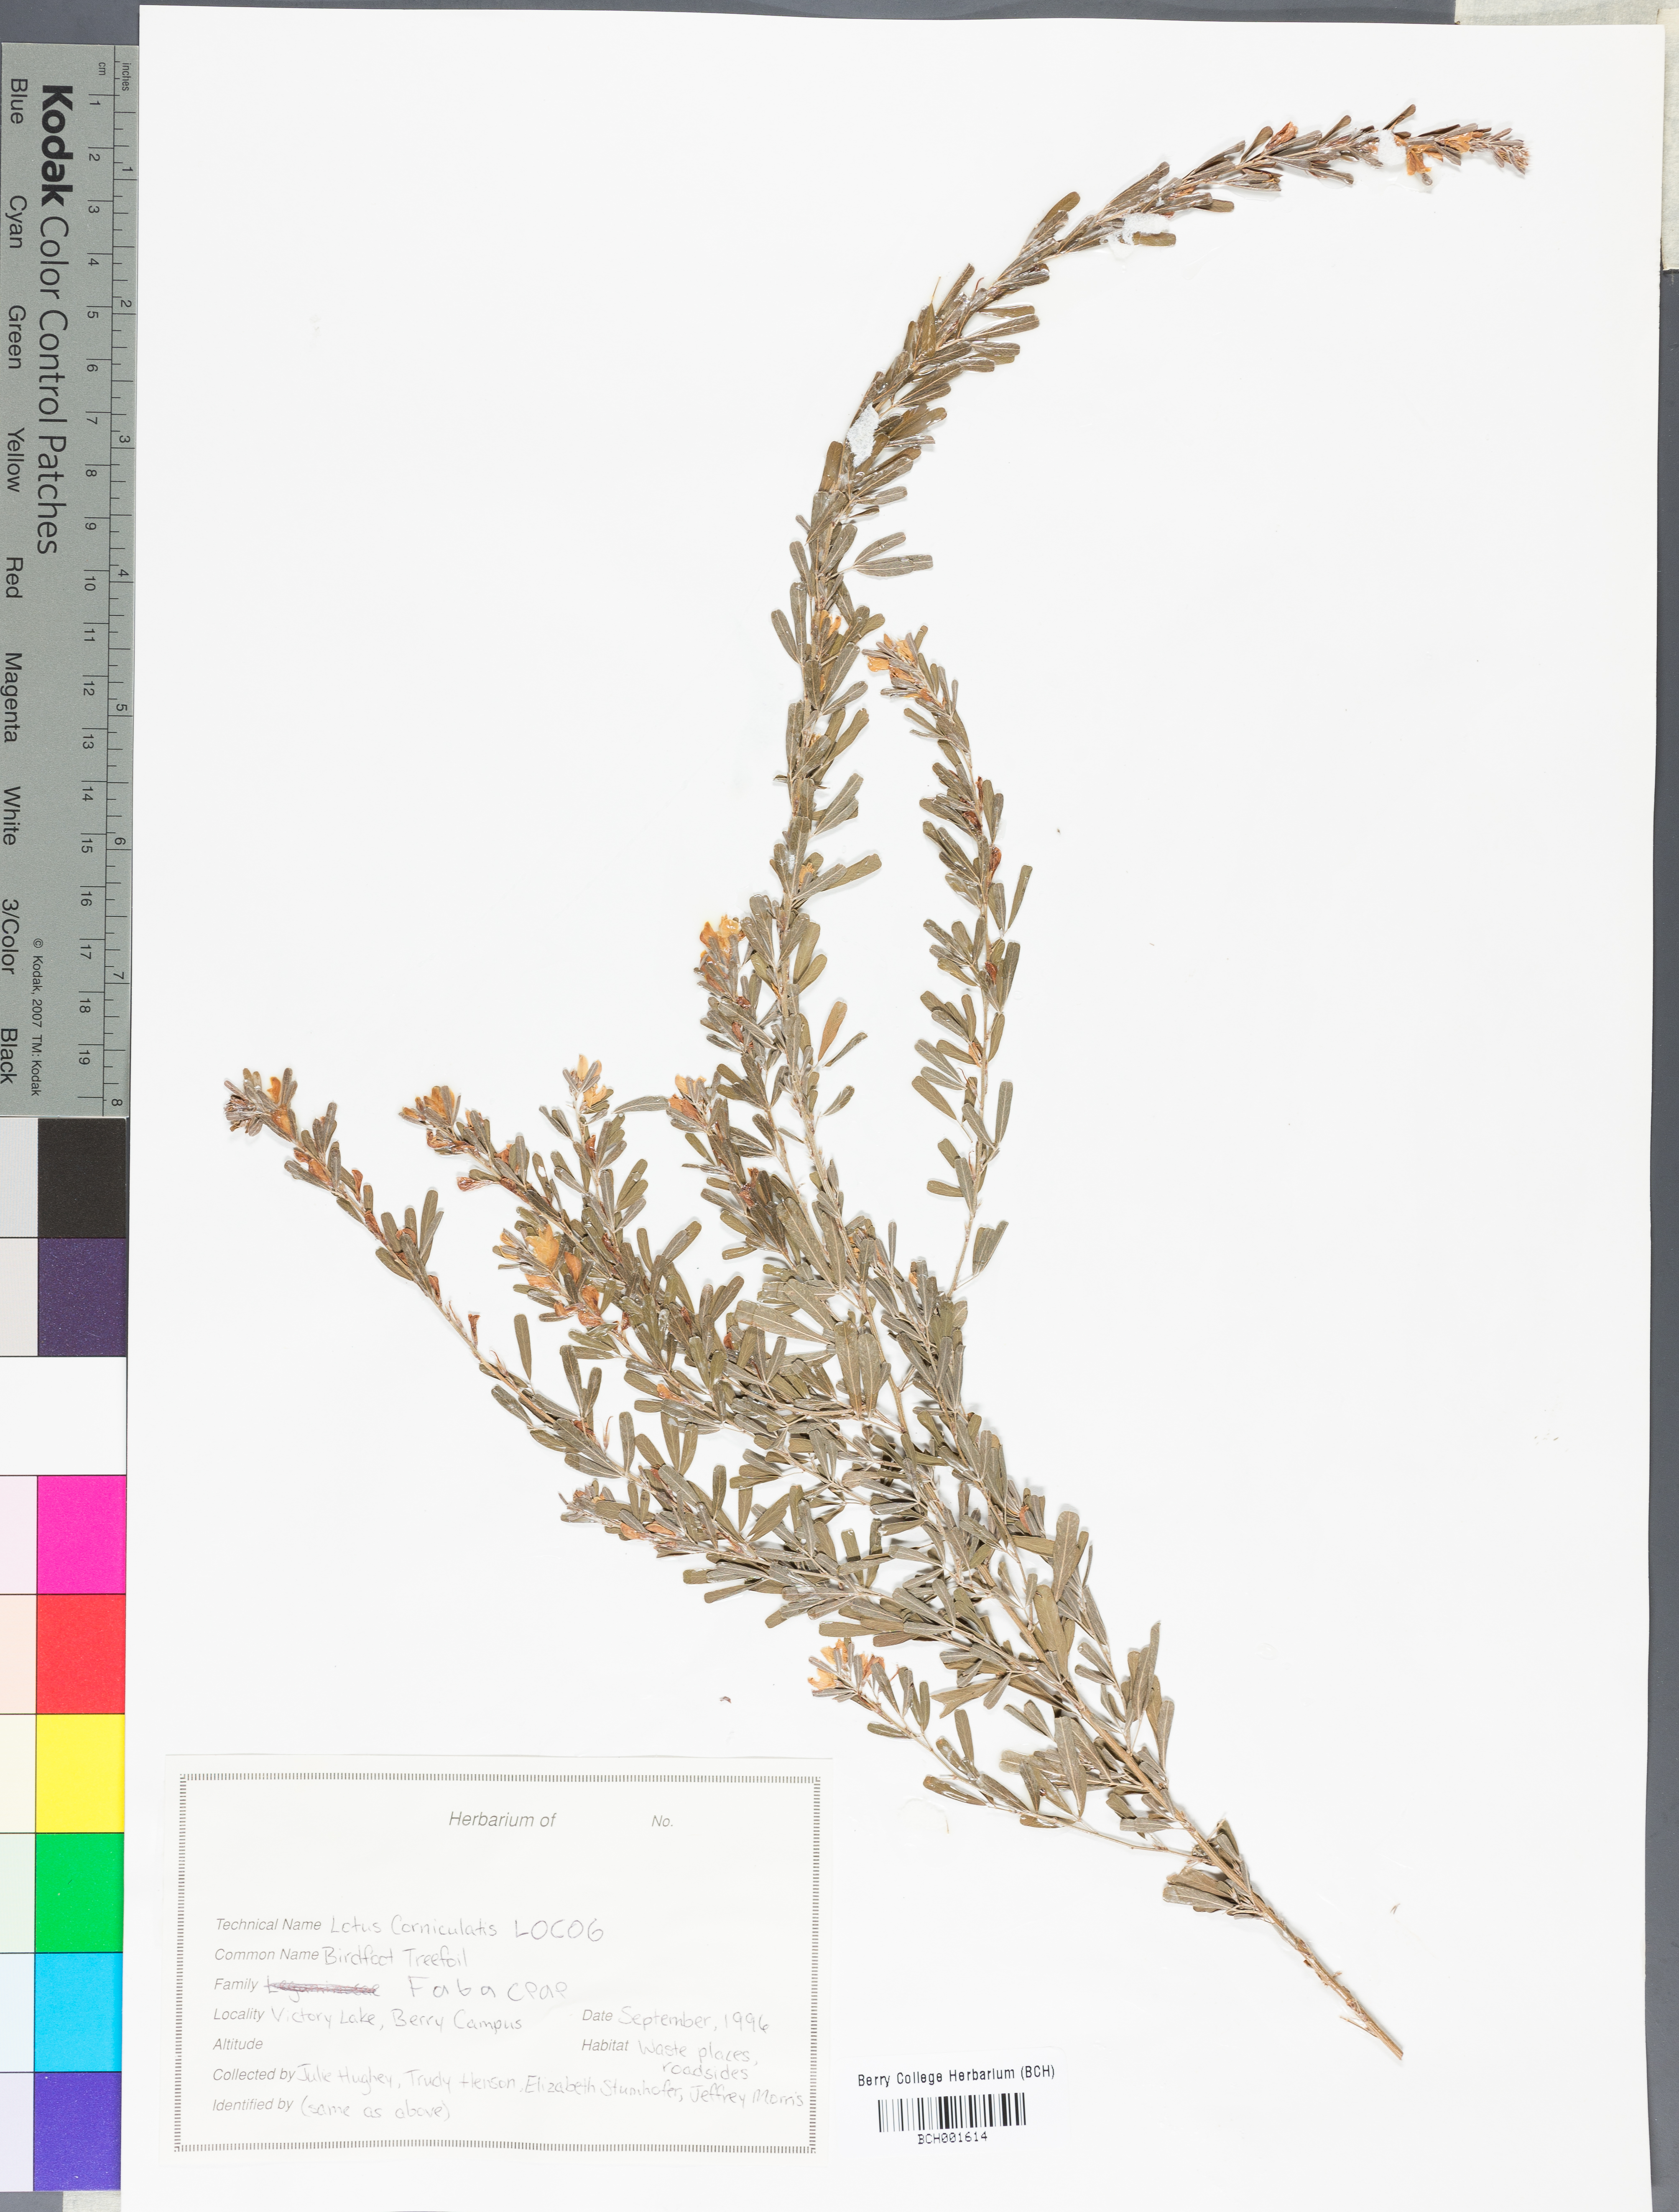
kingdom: Plantae
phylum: Tracheophyta
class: Magnoliopsida
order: Fabales
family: Fabaceae
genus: Lotus
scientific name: Lotus corniculatus
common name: Common bird's-foot-trefoil
